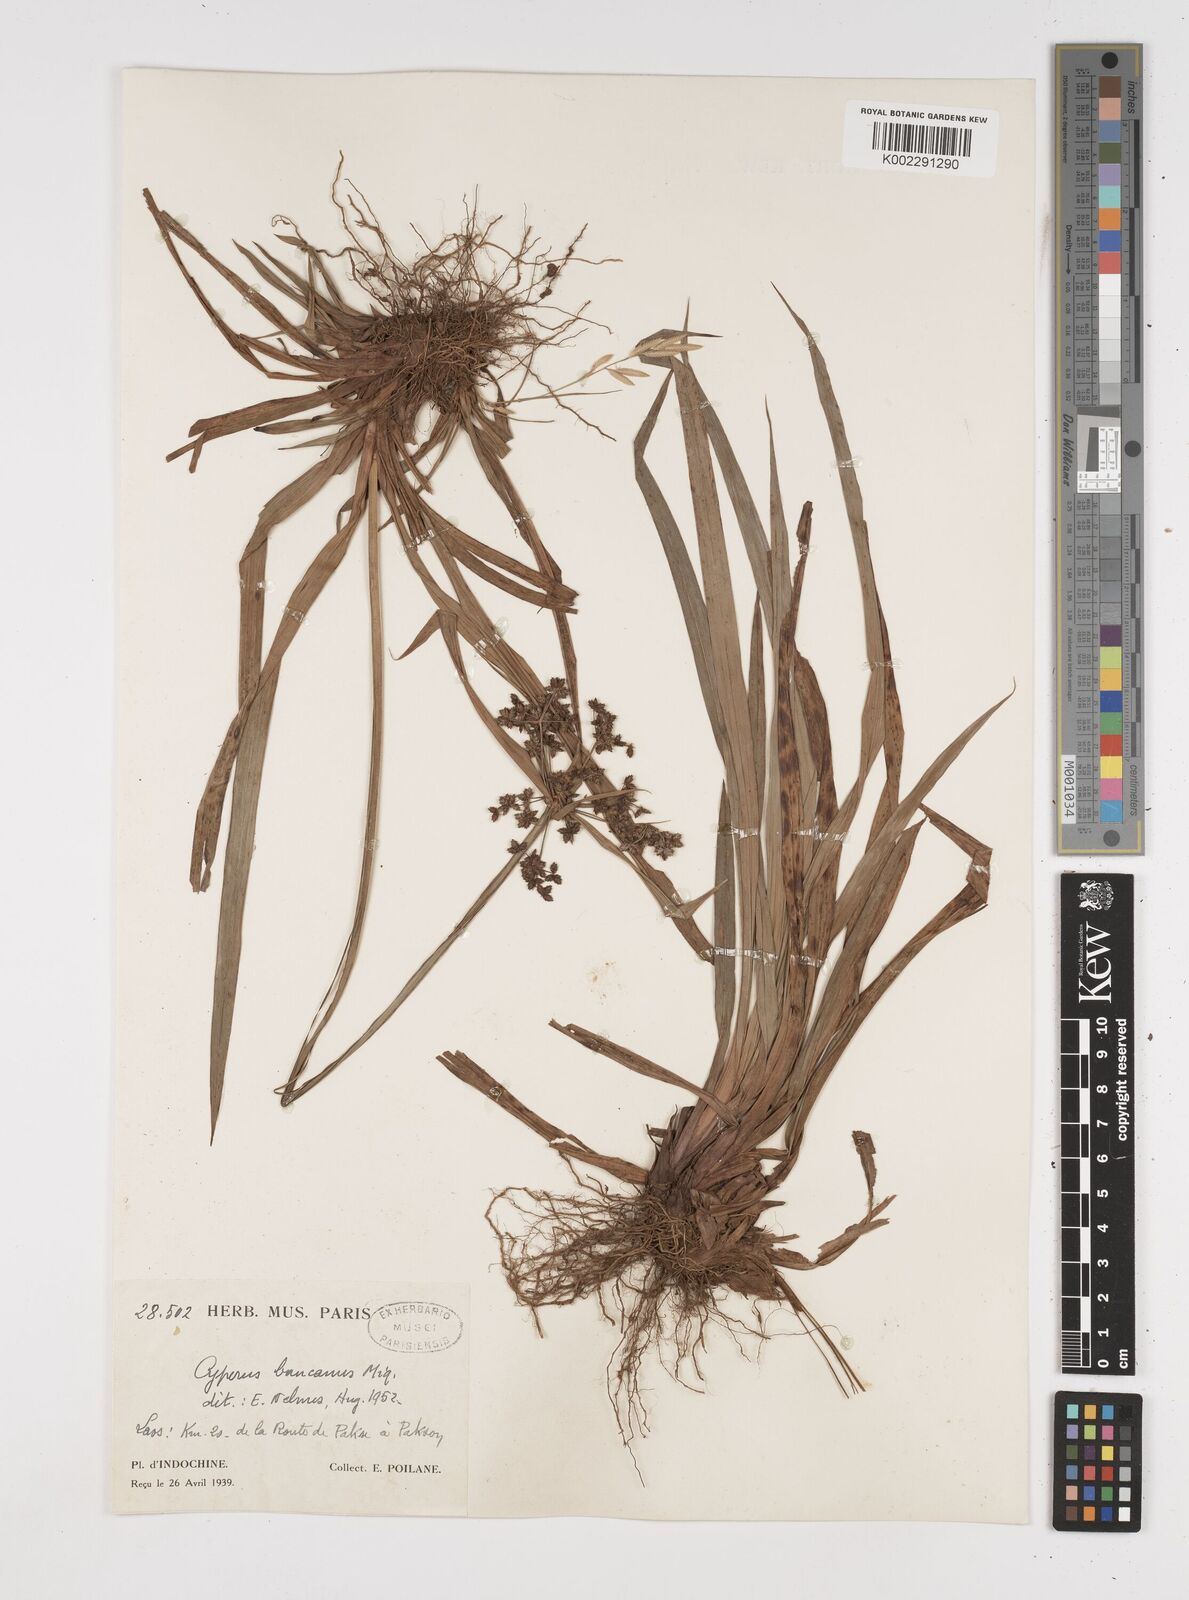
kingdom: Plantae
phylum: Tracheophyta
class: Liliopsida
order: Poales
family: Cyperaceae
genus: Cyperus
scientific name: Cyperus trialatus
